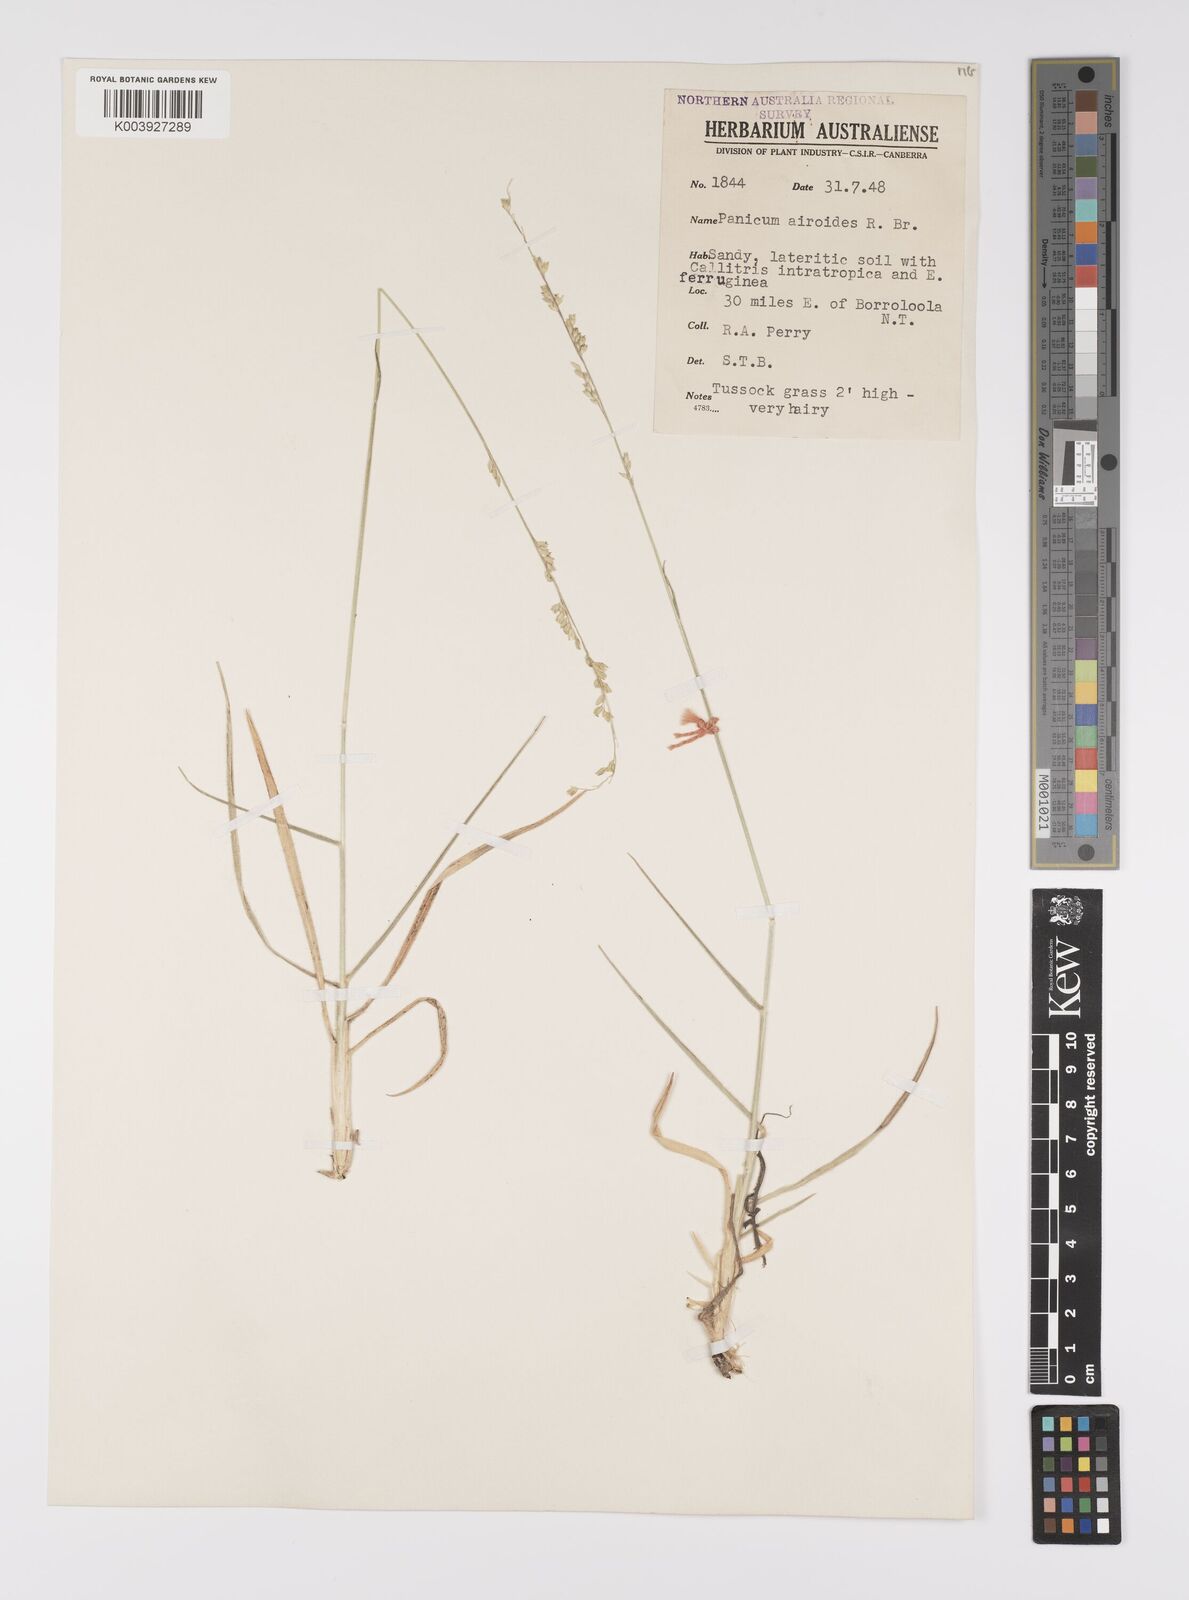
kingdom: Plantae
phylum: Tracheophyta
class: Liliopsida
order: Poales
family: Poaceae
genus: Whiteochloa
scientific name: Whiteochloa airoides
